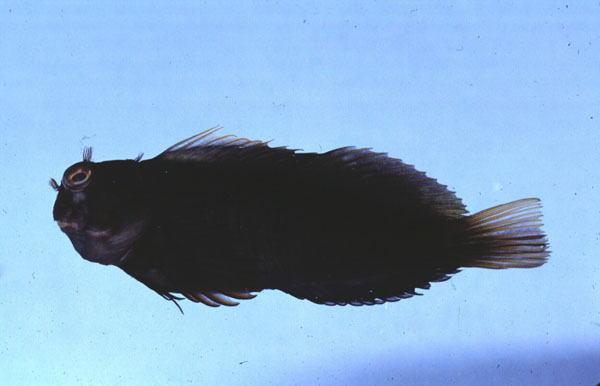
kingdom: Animalia
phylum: Chordata
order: Perciformes
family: Blenniidae
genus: Cirripectes
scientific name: Cirripectes castaneus
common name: Chestnut blenny
